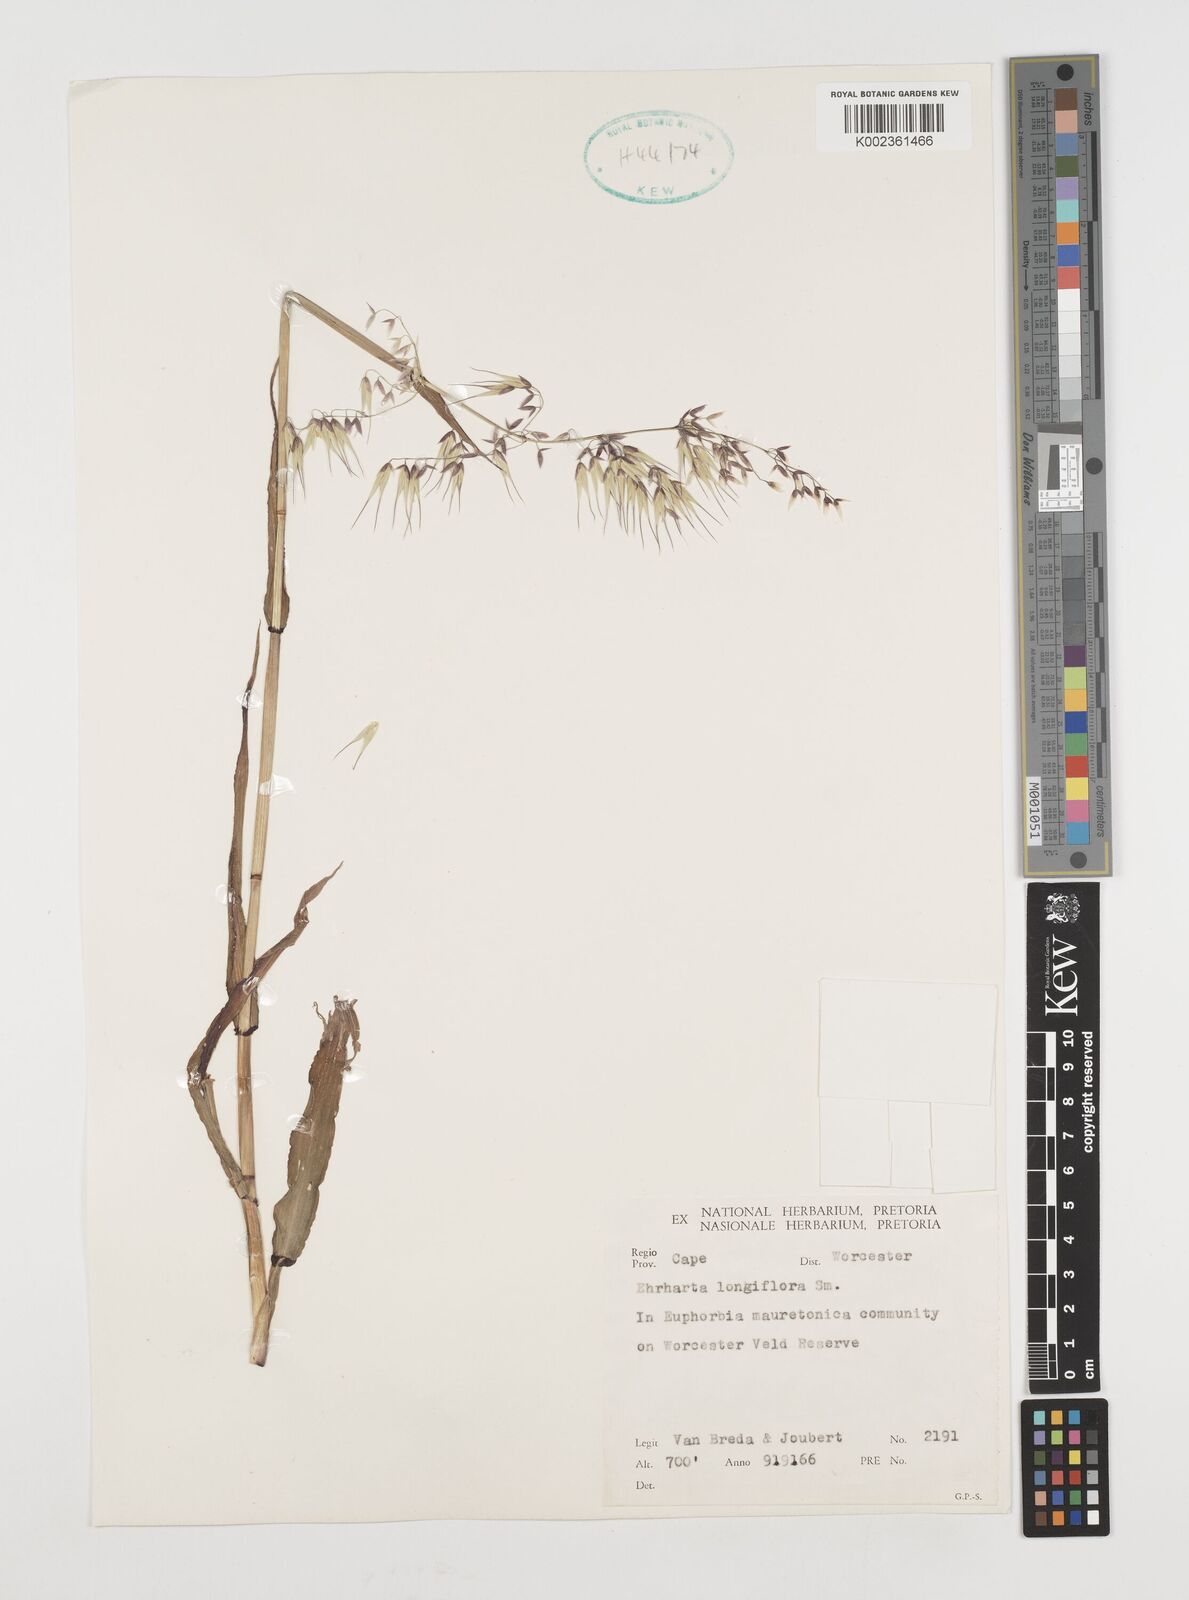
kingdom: Plantae
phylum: Tracheophyta
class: Liliopsida
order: Poales
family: Poaceae
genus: Ehrharta
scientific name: Ehrharta longiflora
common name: Longflowered veldtgrass
